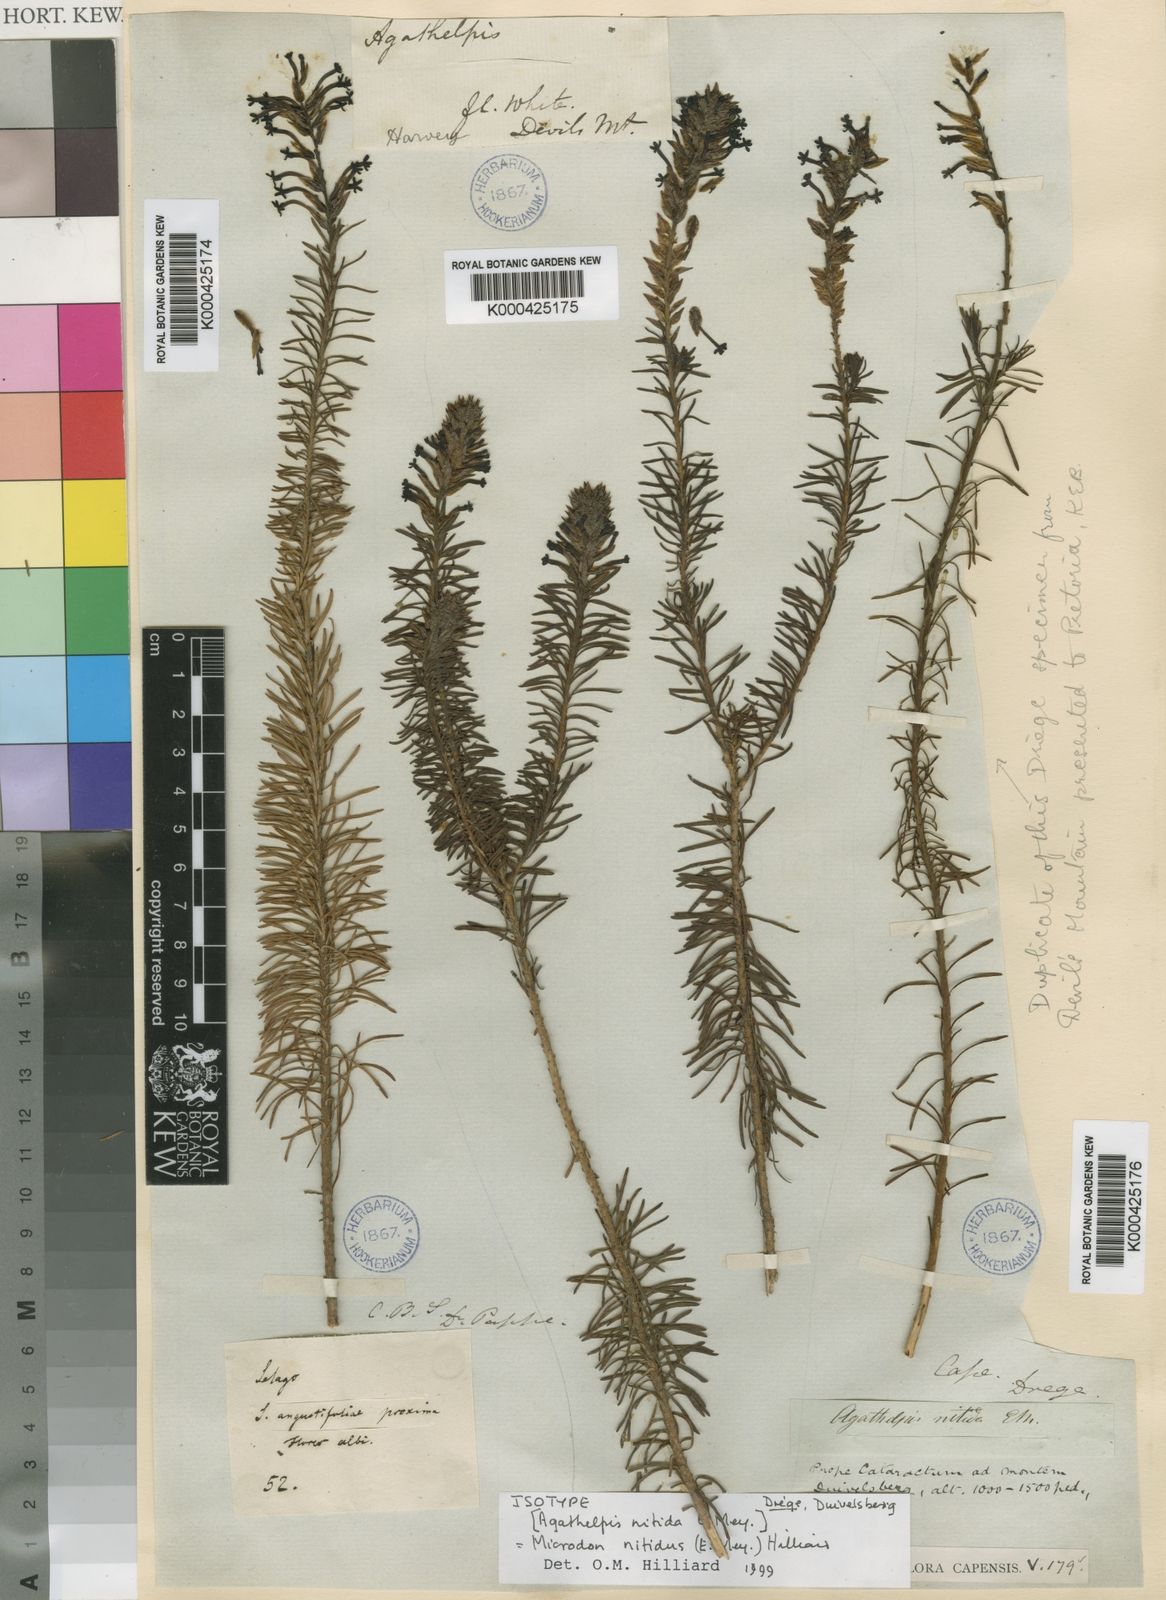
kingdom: Plantae
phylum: Tracheophyta
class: Magnoliopsida
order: Lamiales
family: Scrophulariaceae
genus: Microdon
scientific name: Microdon nitidus
